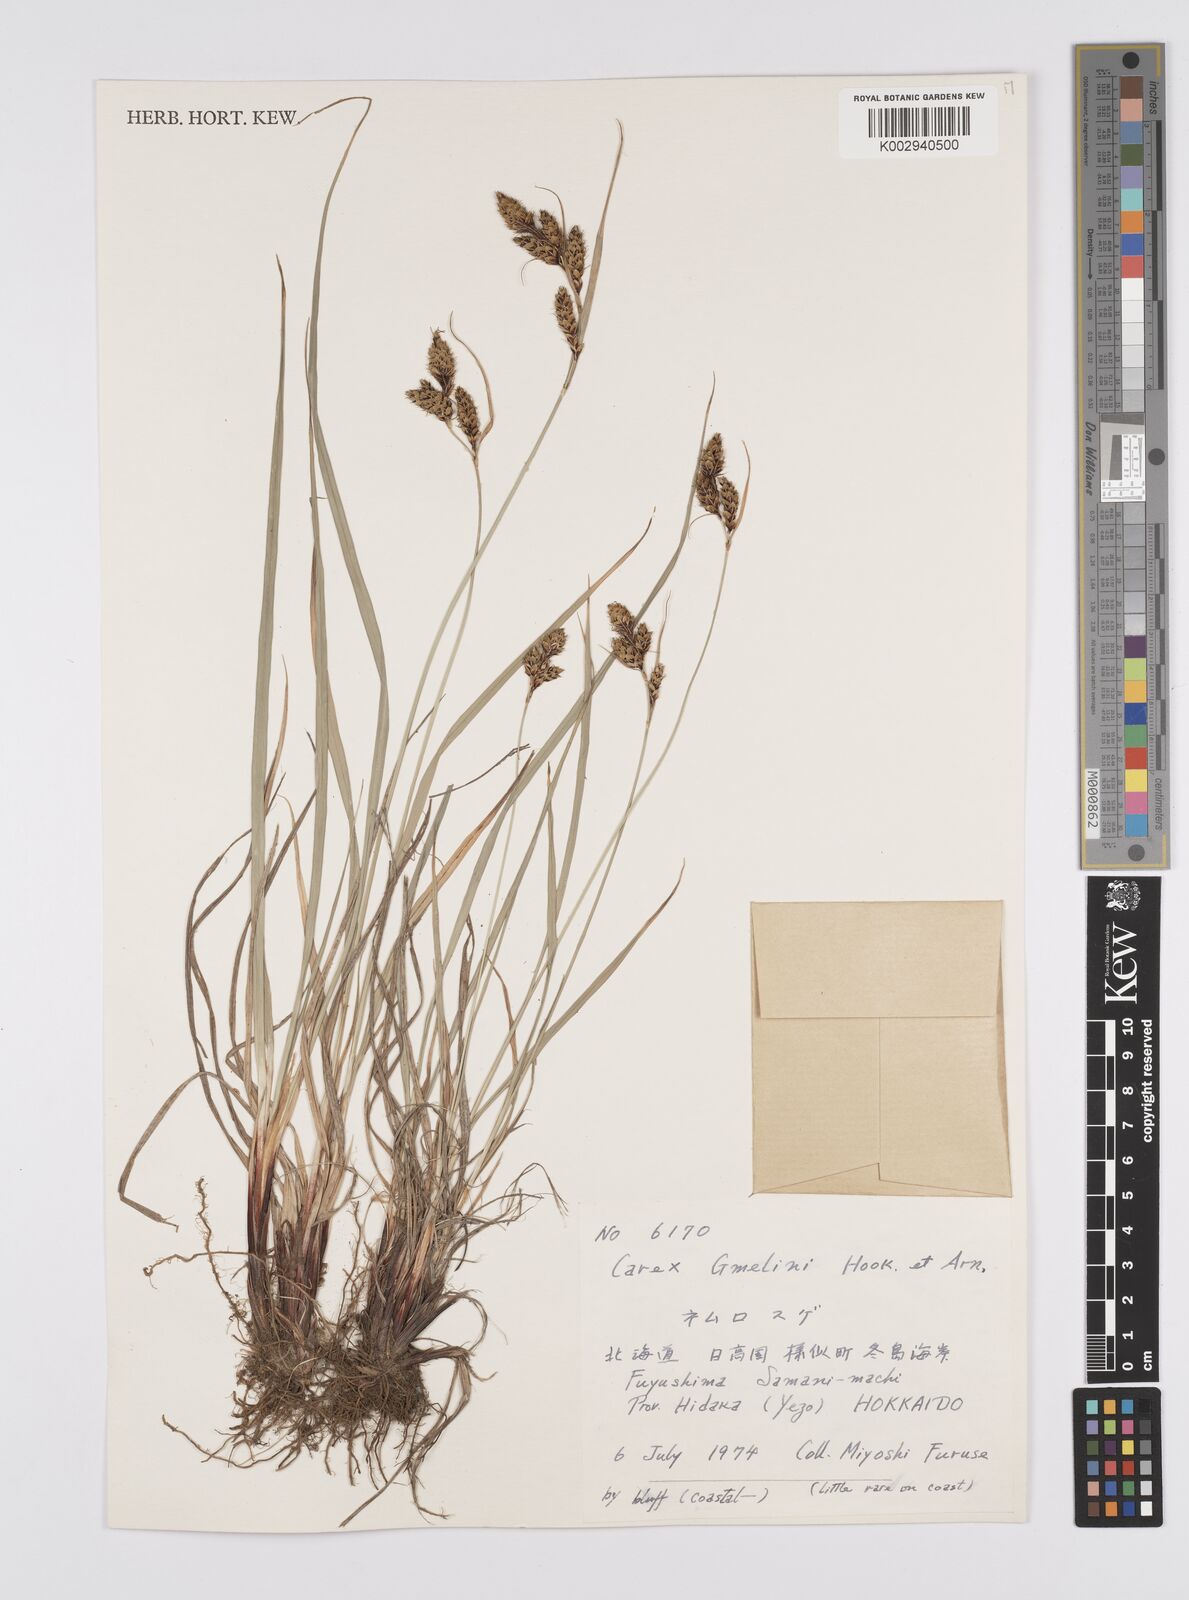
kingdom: Plantae
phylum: Tracheophyta
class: Liliopsida
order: Poales
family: Cyperaceae
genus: Carex
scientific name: Carex gmelinii
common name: Gmelin's sedge
